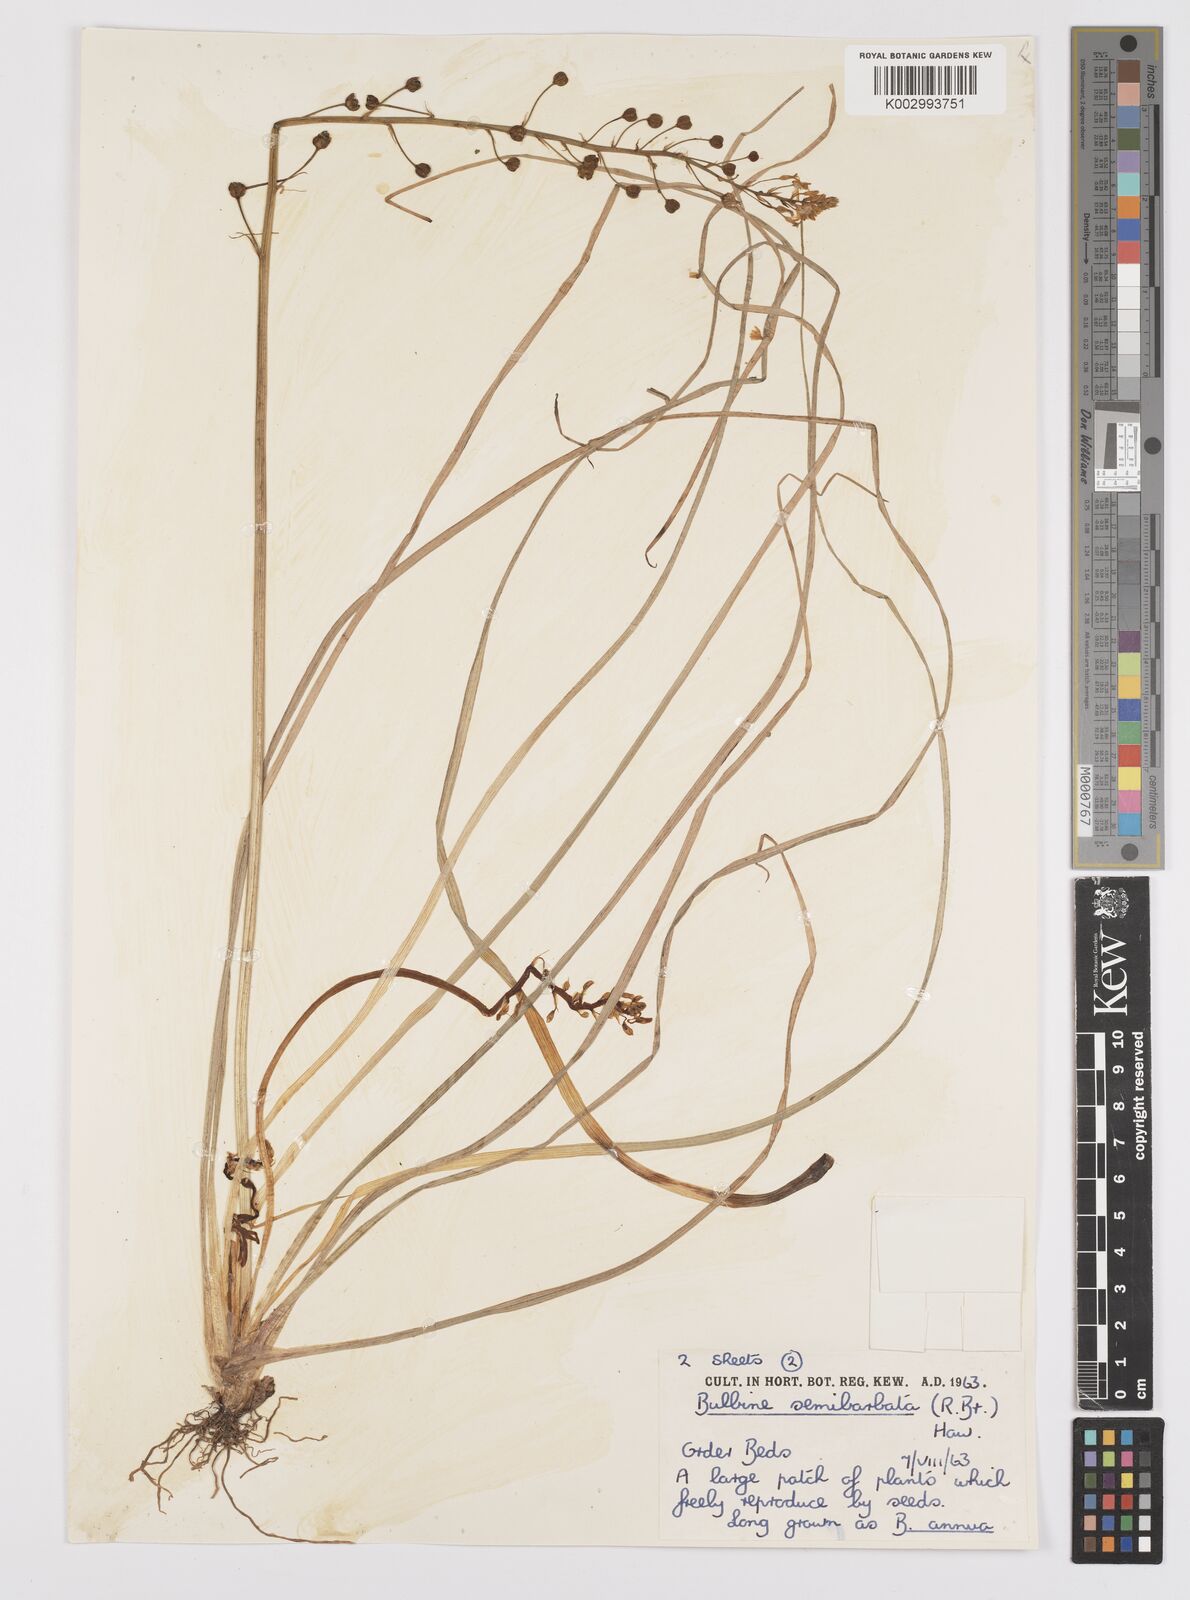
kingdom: Plantae
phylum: Tracheophyta
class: Liliopsida
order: Asparagales
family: Asphodelaceae
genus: Bulbine
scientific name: Bulbine semibarbata
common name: Leek lily
